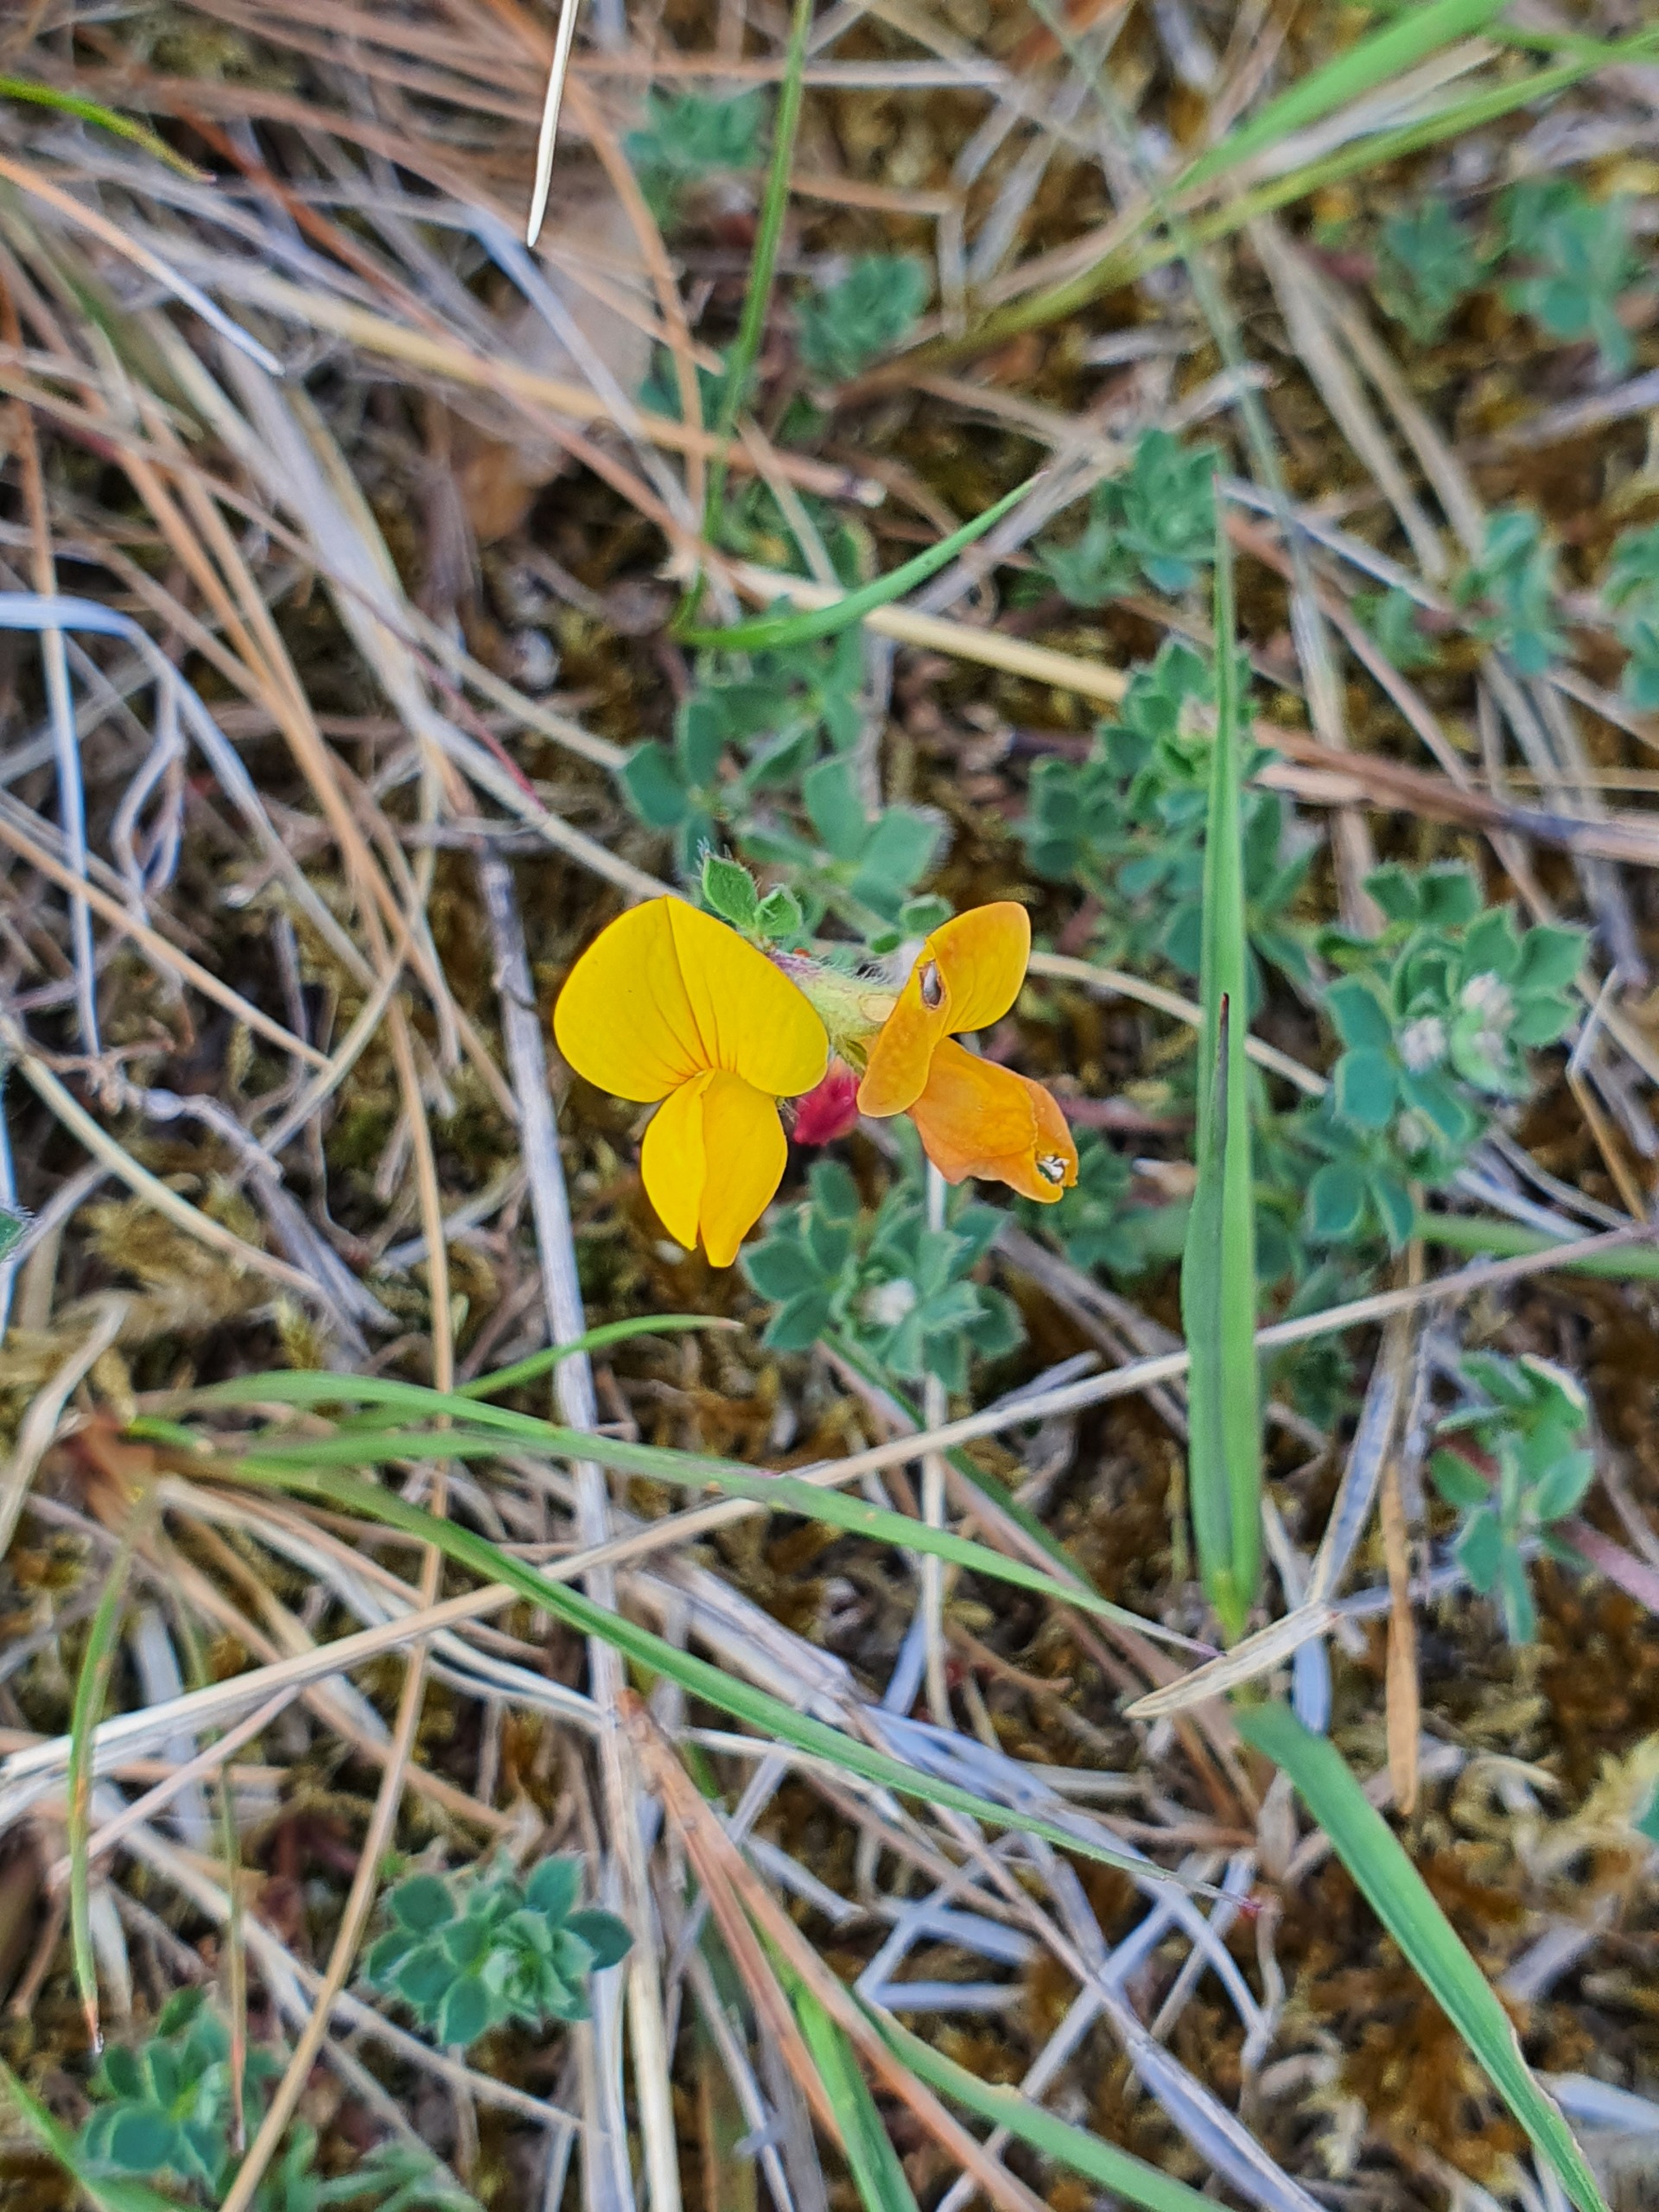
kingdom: Plantae
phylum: Tracheophyta
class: Magnoliopsida
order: Fabales
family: Fabaceae
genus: Lotus
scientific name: Lotus corniculatus
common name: Almindelig kællingetand
